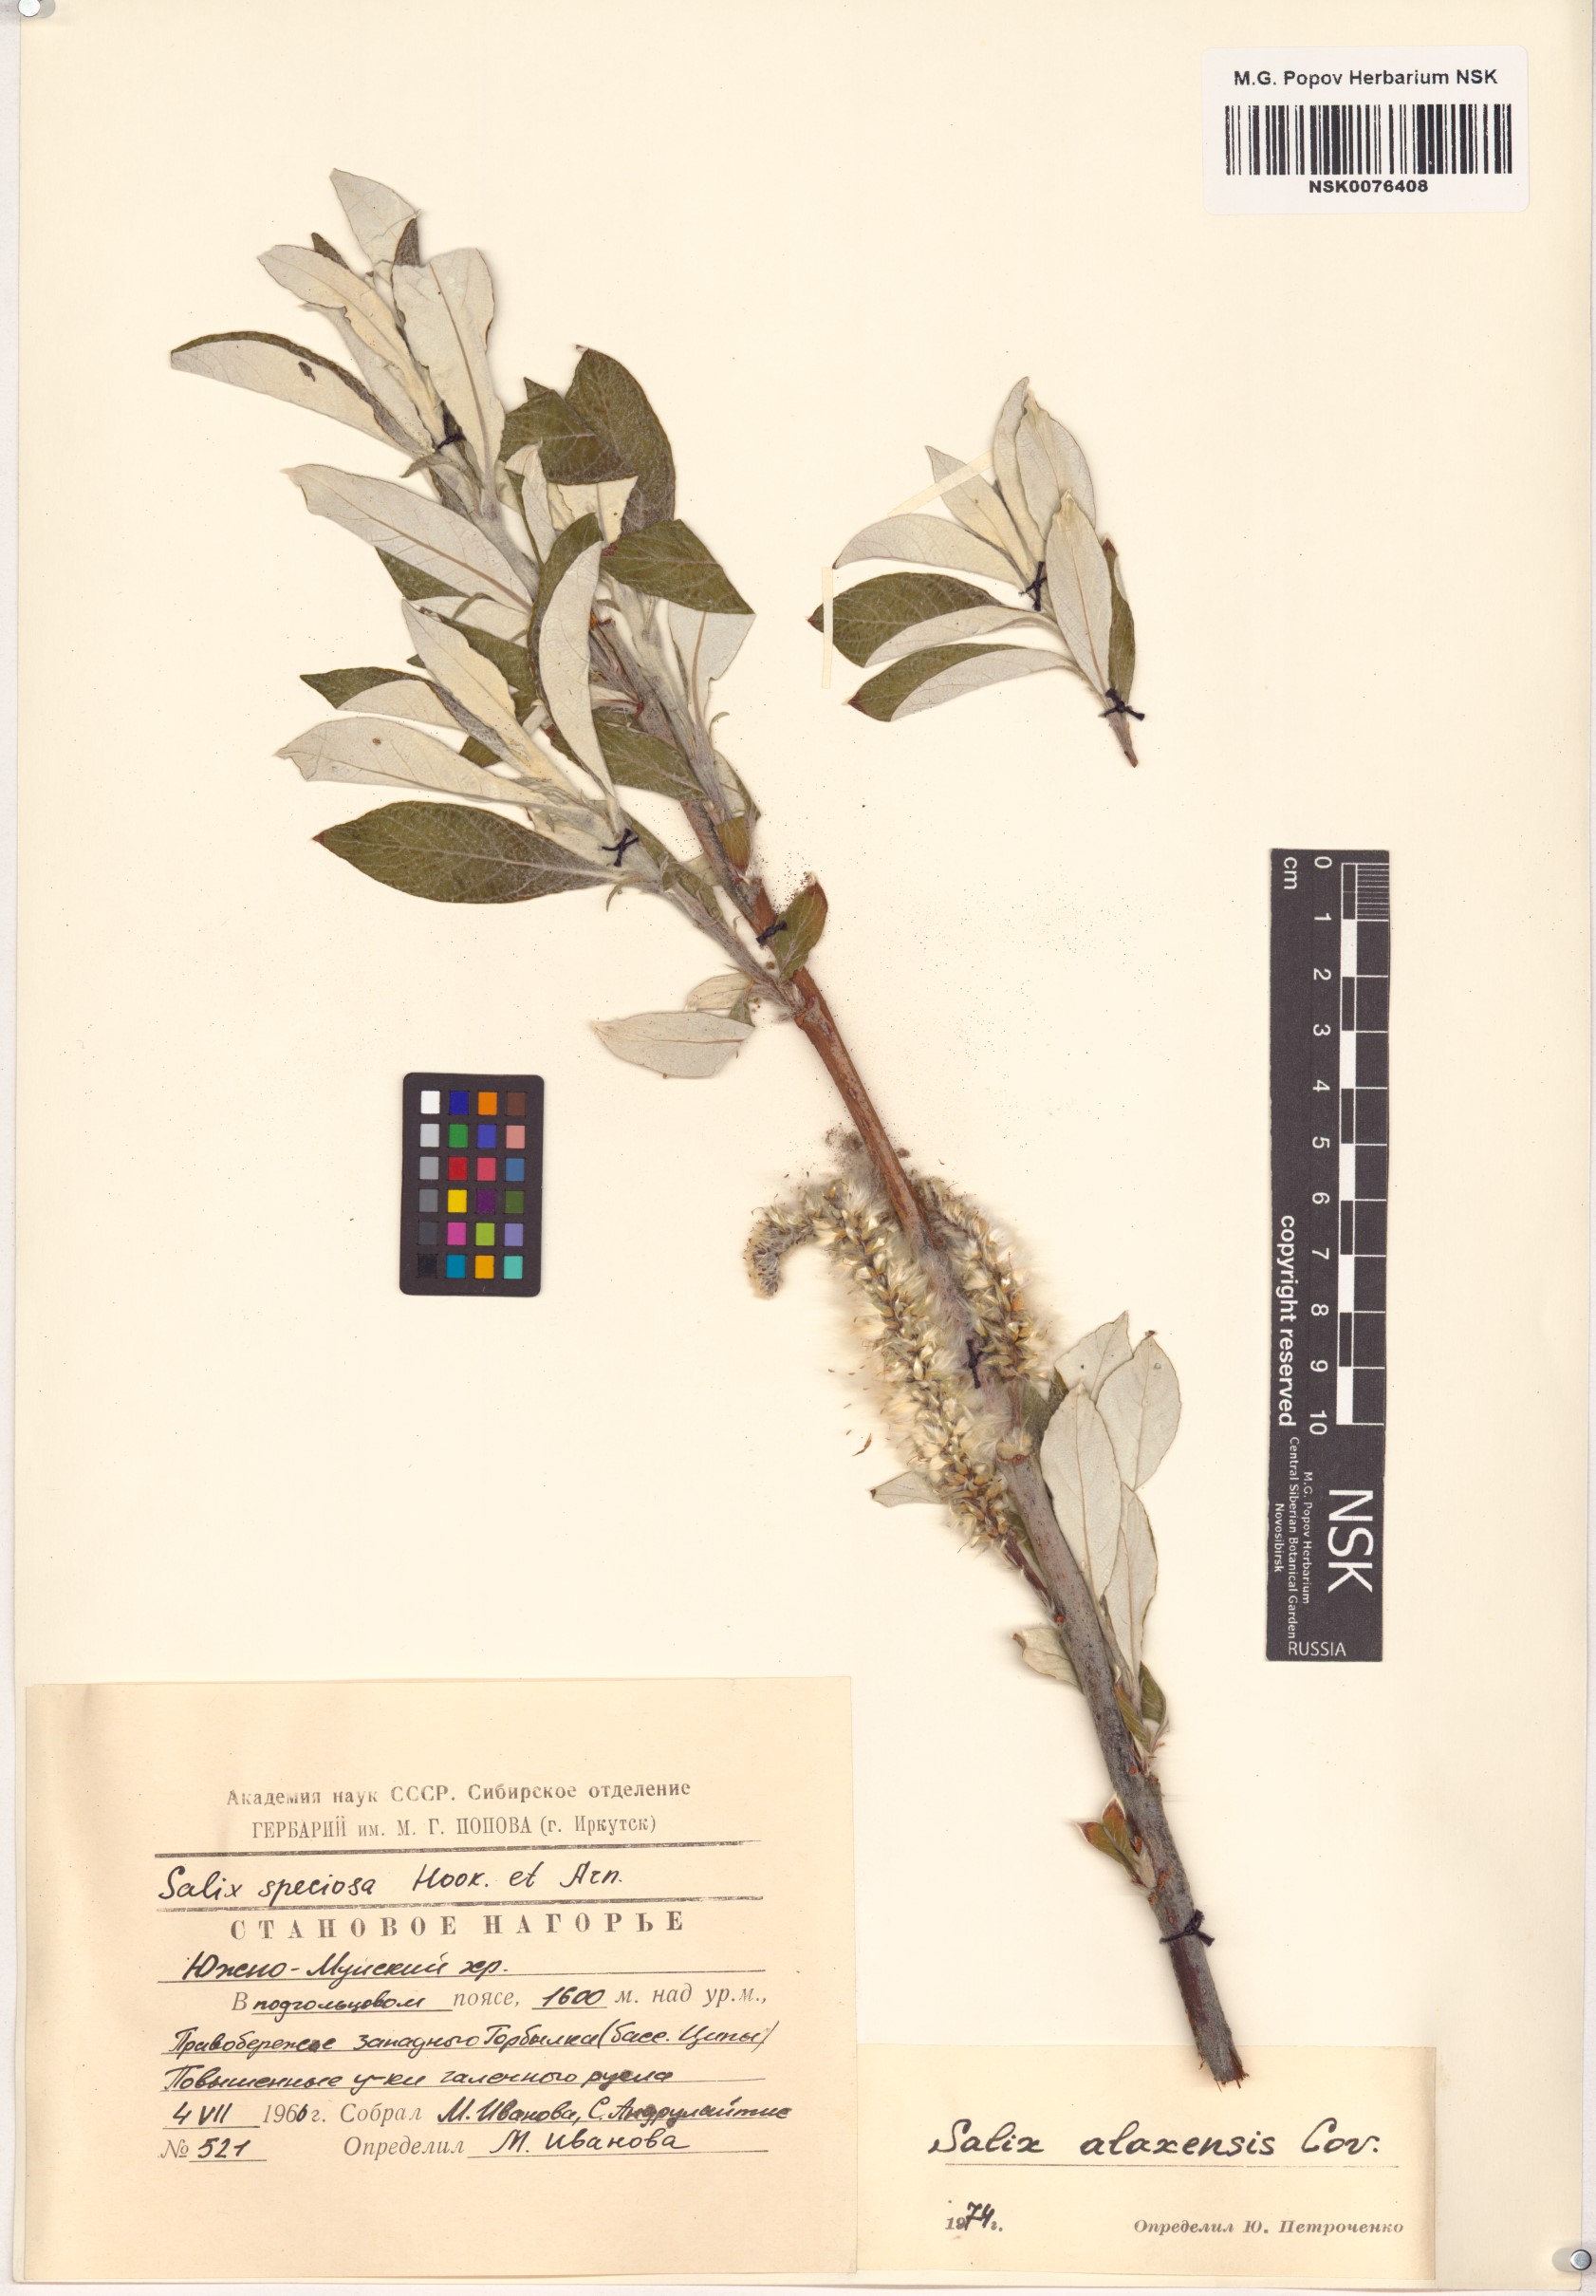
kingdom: Plantae
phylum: Tracheophyta
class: Magnoliopsida
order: Malpighiales
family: Salicaceae
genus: Salix
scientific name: Salix alaxensis
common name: Feltleaf willow
